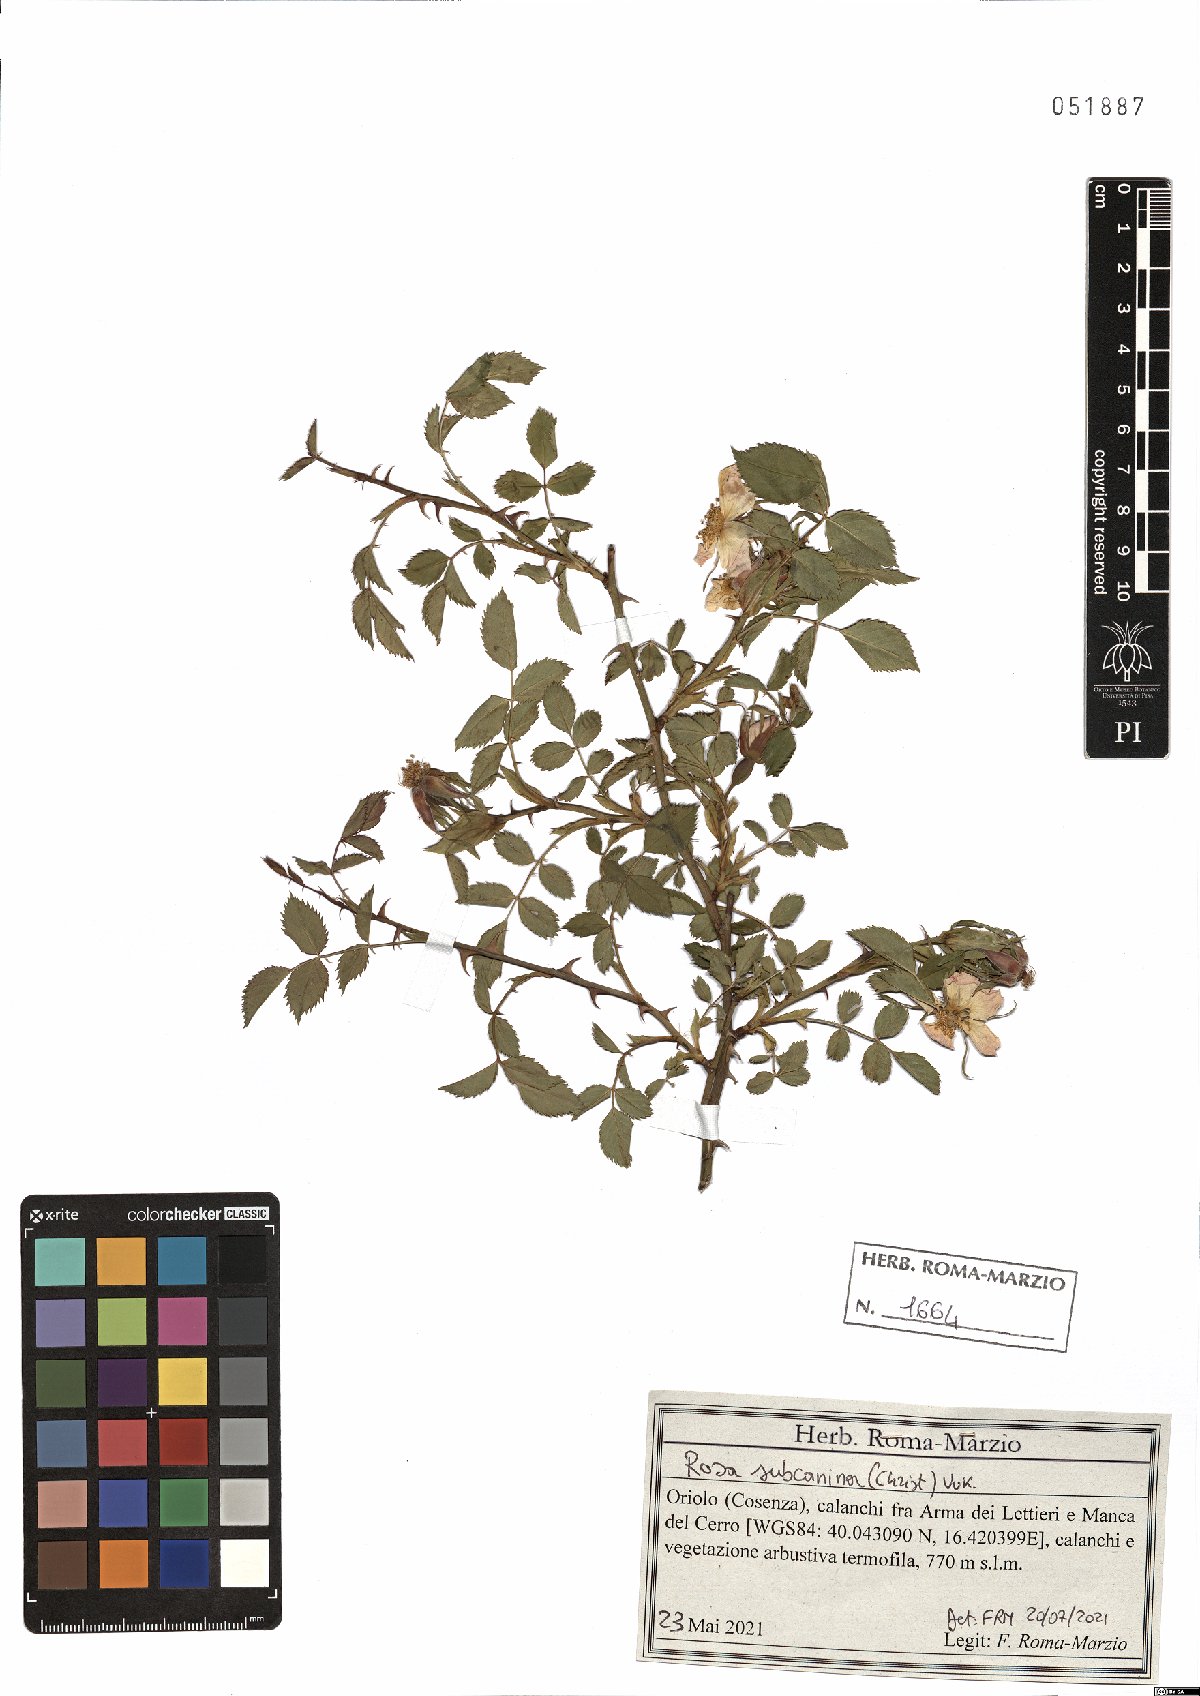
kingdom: Plantae
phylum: Tracheophyta
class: Magnoliopsida
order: Rosales
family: Rosaceae
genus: Rosa
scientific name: Rosa subcanina
